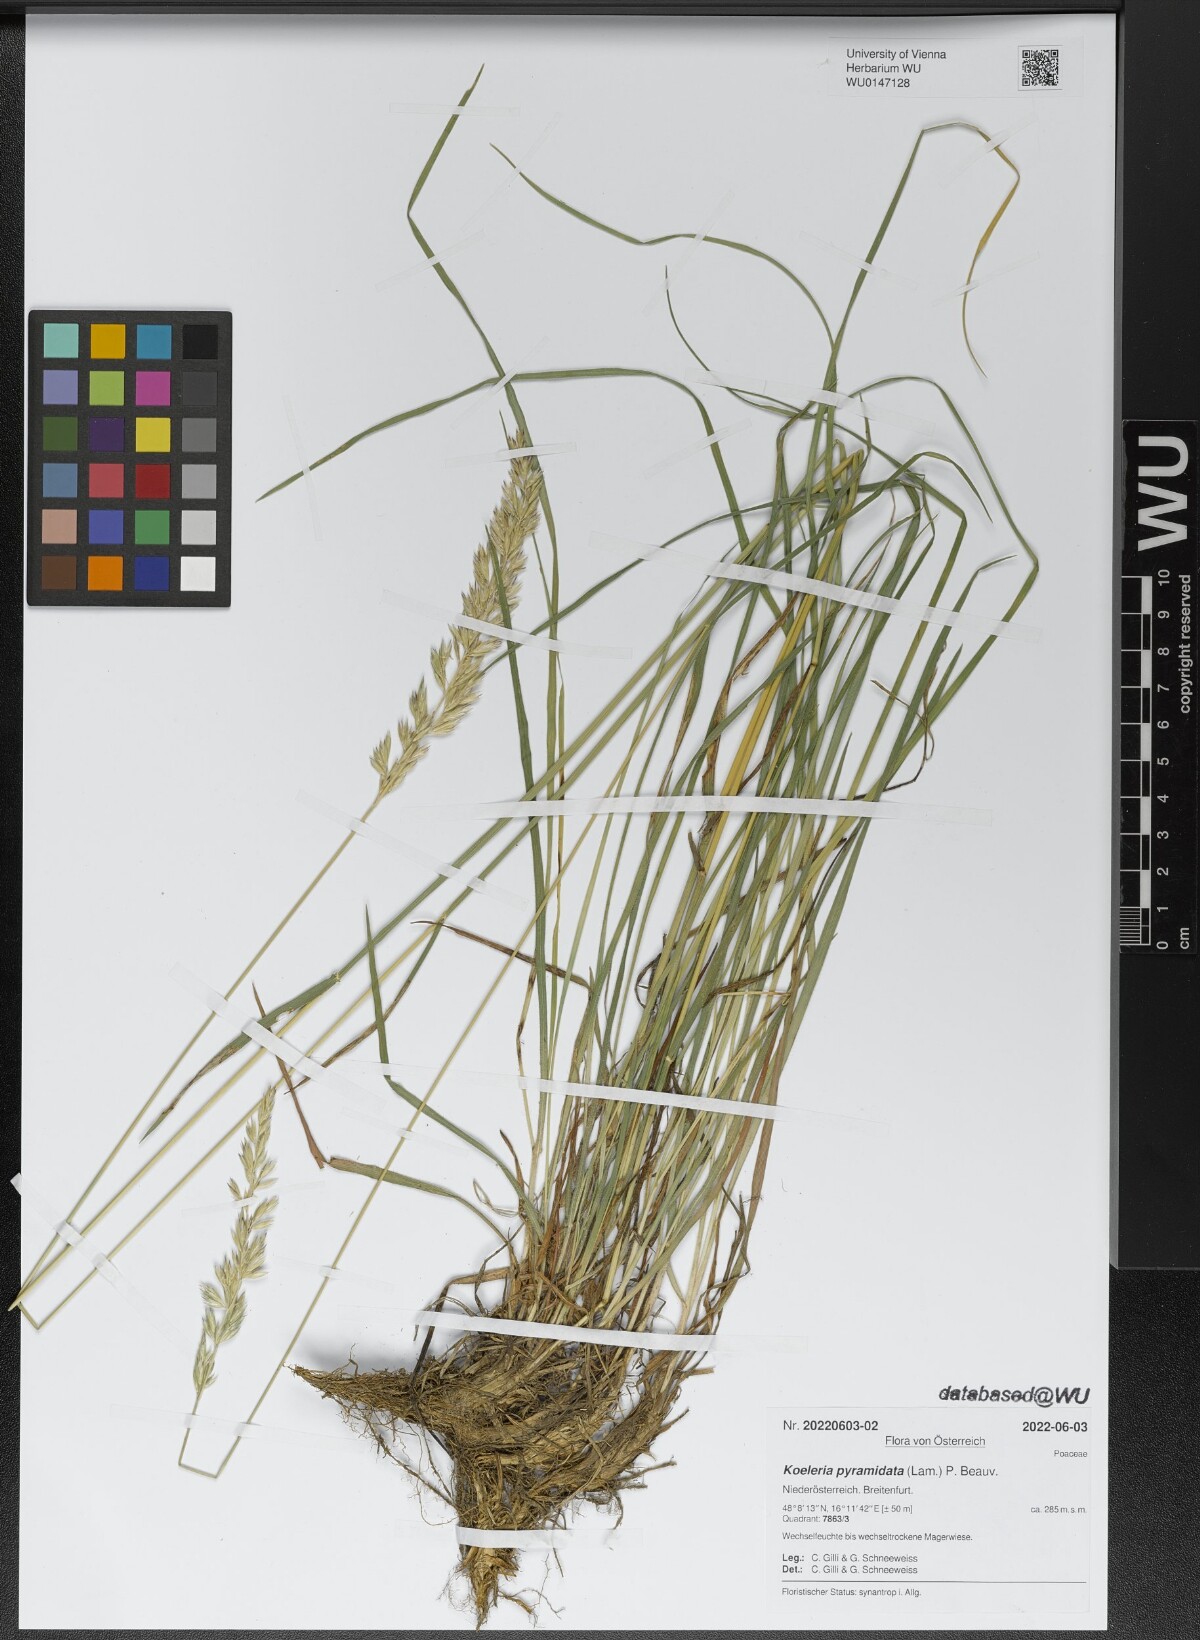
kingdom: Plantae
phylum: Tracheophyta
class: Liliopsida
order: Poales
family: Poaceae
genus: Koeleria
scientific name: Koeleria pyramidata
